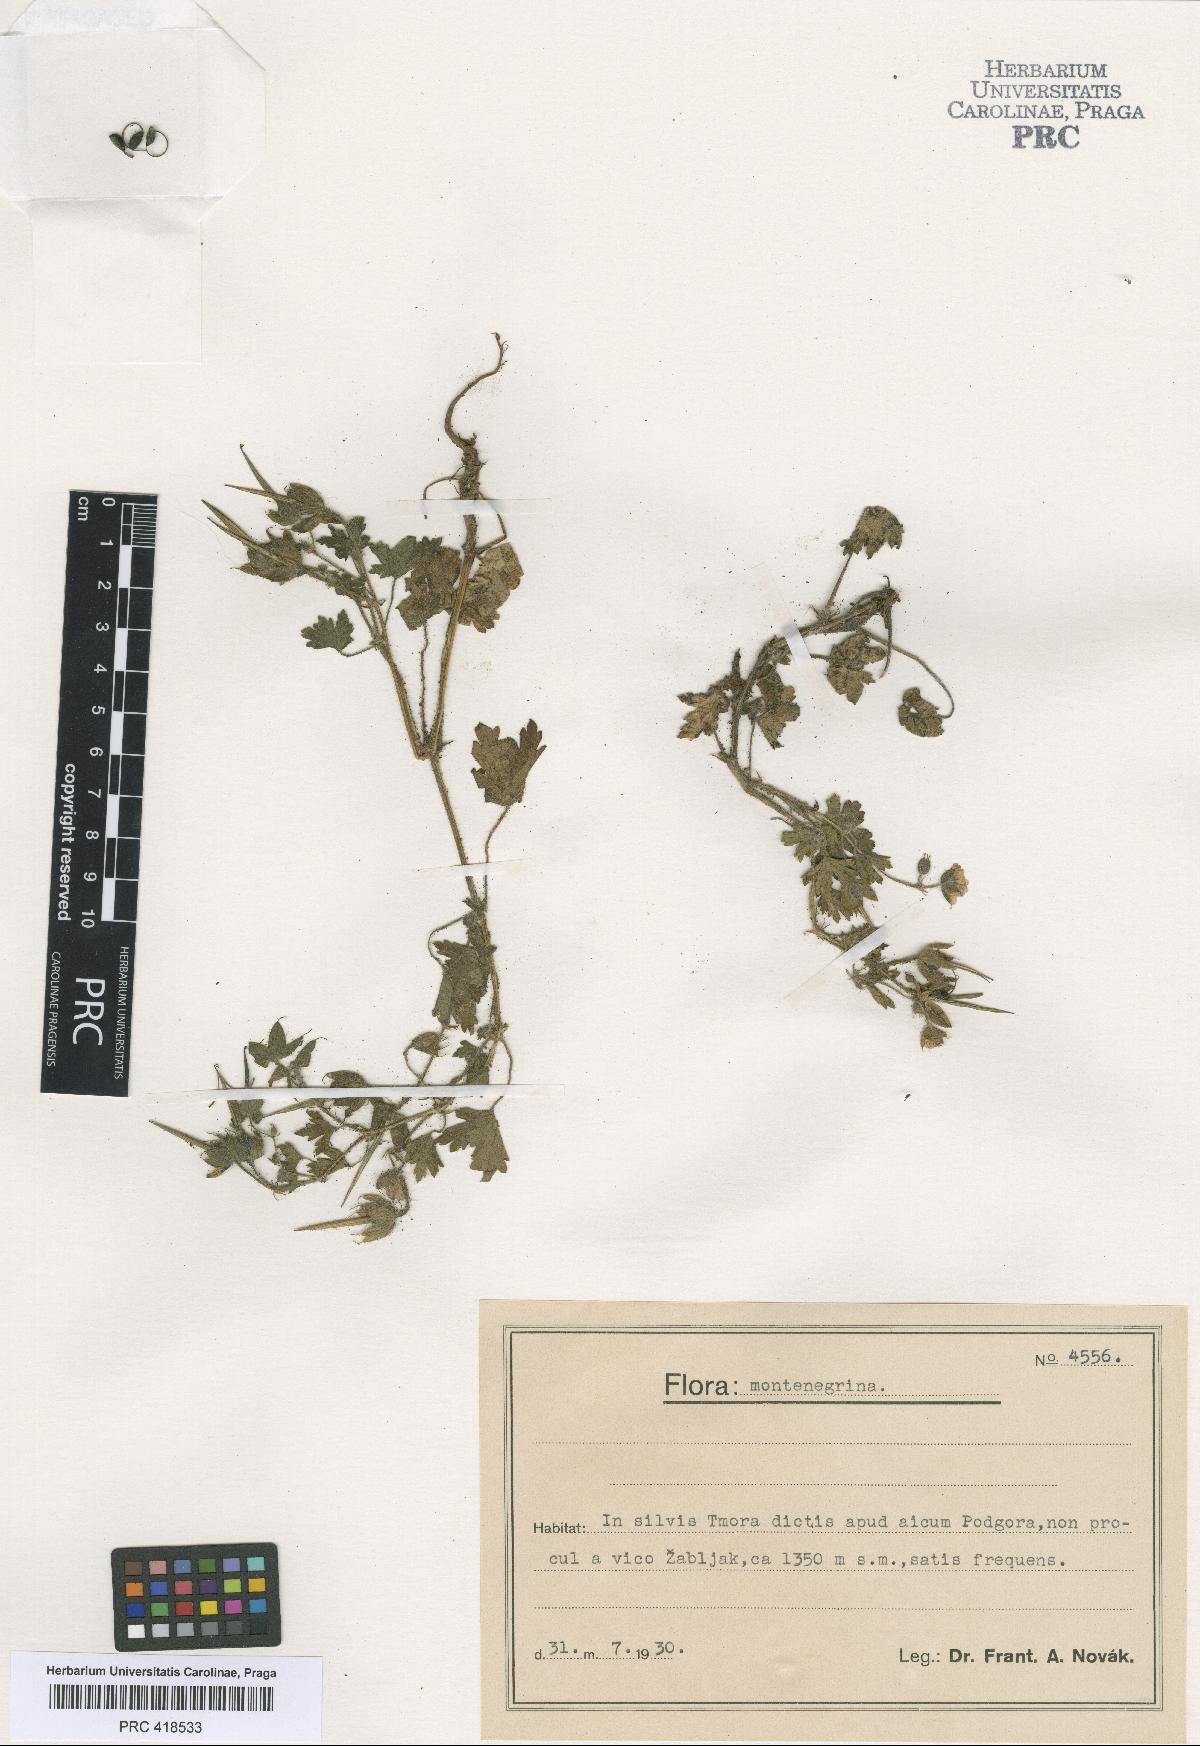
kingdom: Plantae
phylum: Tracheophyta
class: Magnoliopsida
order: Geraniales
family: Geraniaceae
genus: Geranium
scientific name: Geranium bohemicum
